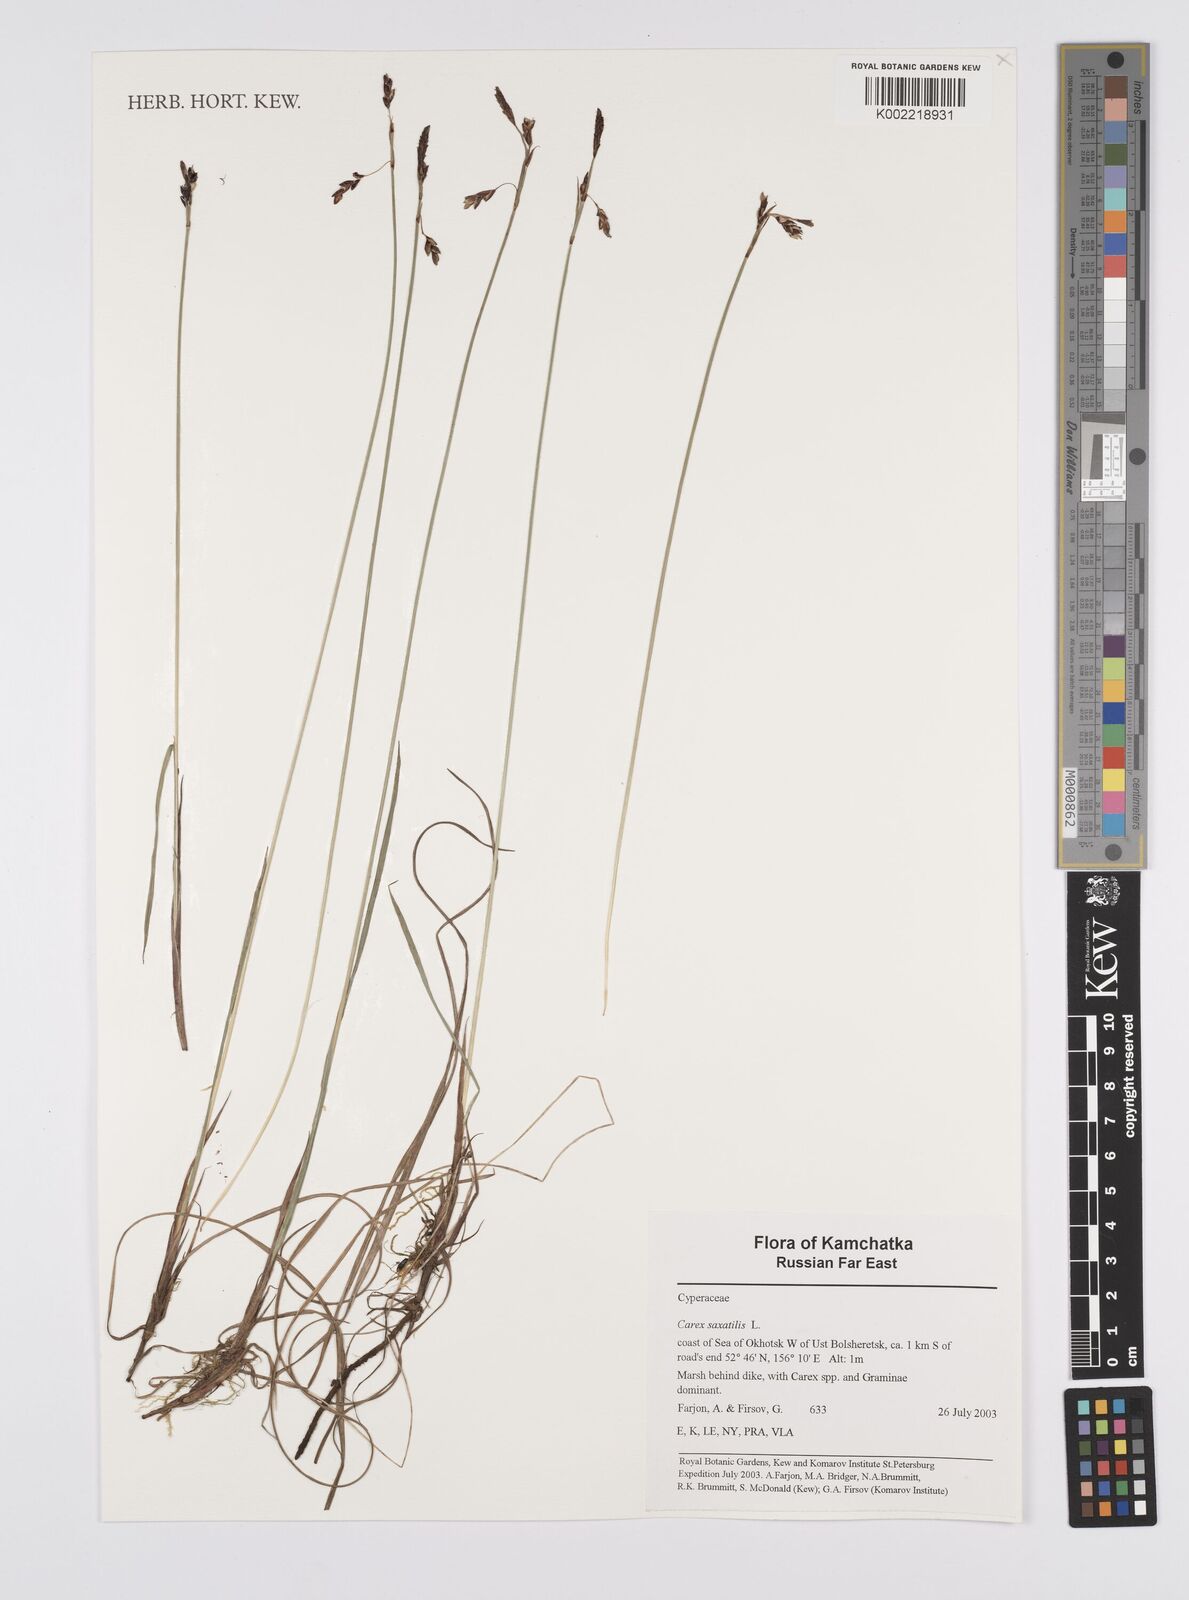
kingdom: Plantae
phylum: Tracheophyta
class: Liliopsida
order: Poales
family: Cyperaceae
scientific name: Cyperaceae
